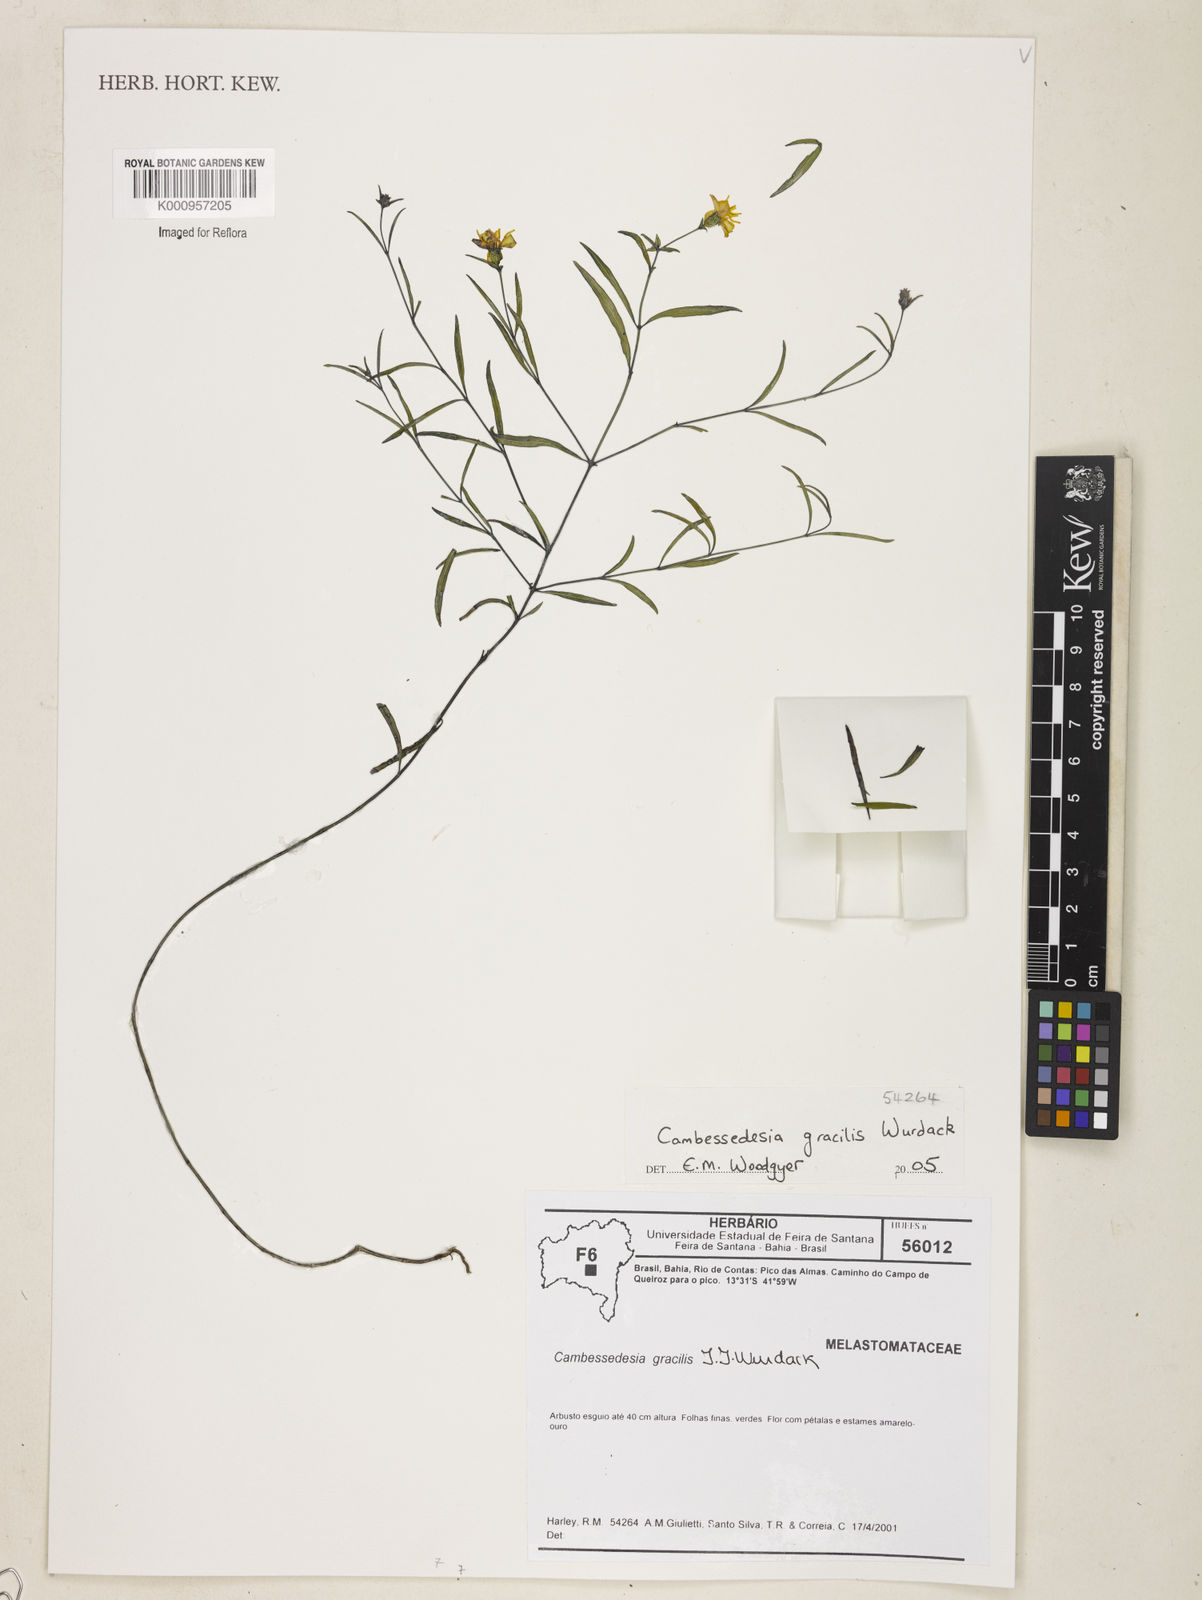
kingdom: Plantae
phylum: Tracheophyta
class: Magnoliopsida
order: Myrtales
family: Melastomataceae
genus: Cambessedesia
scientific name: Cambessedesia gracilis
